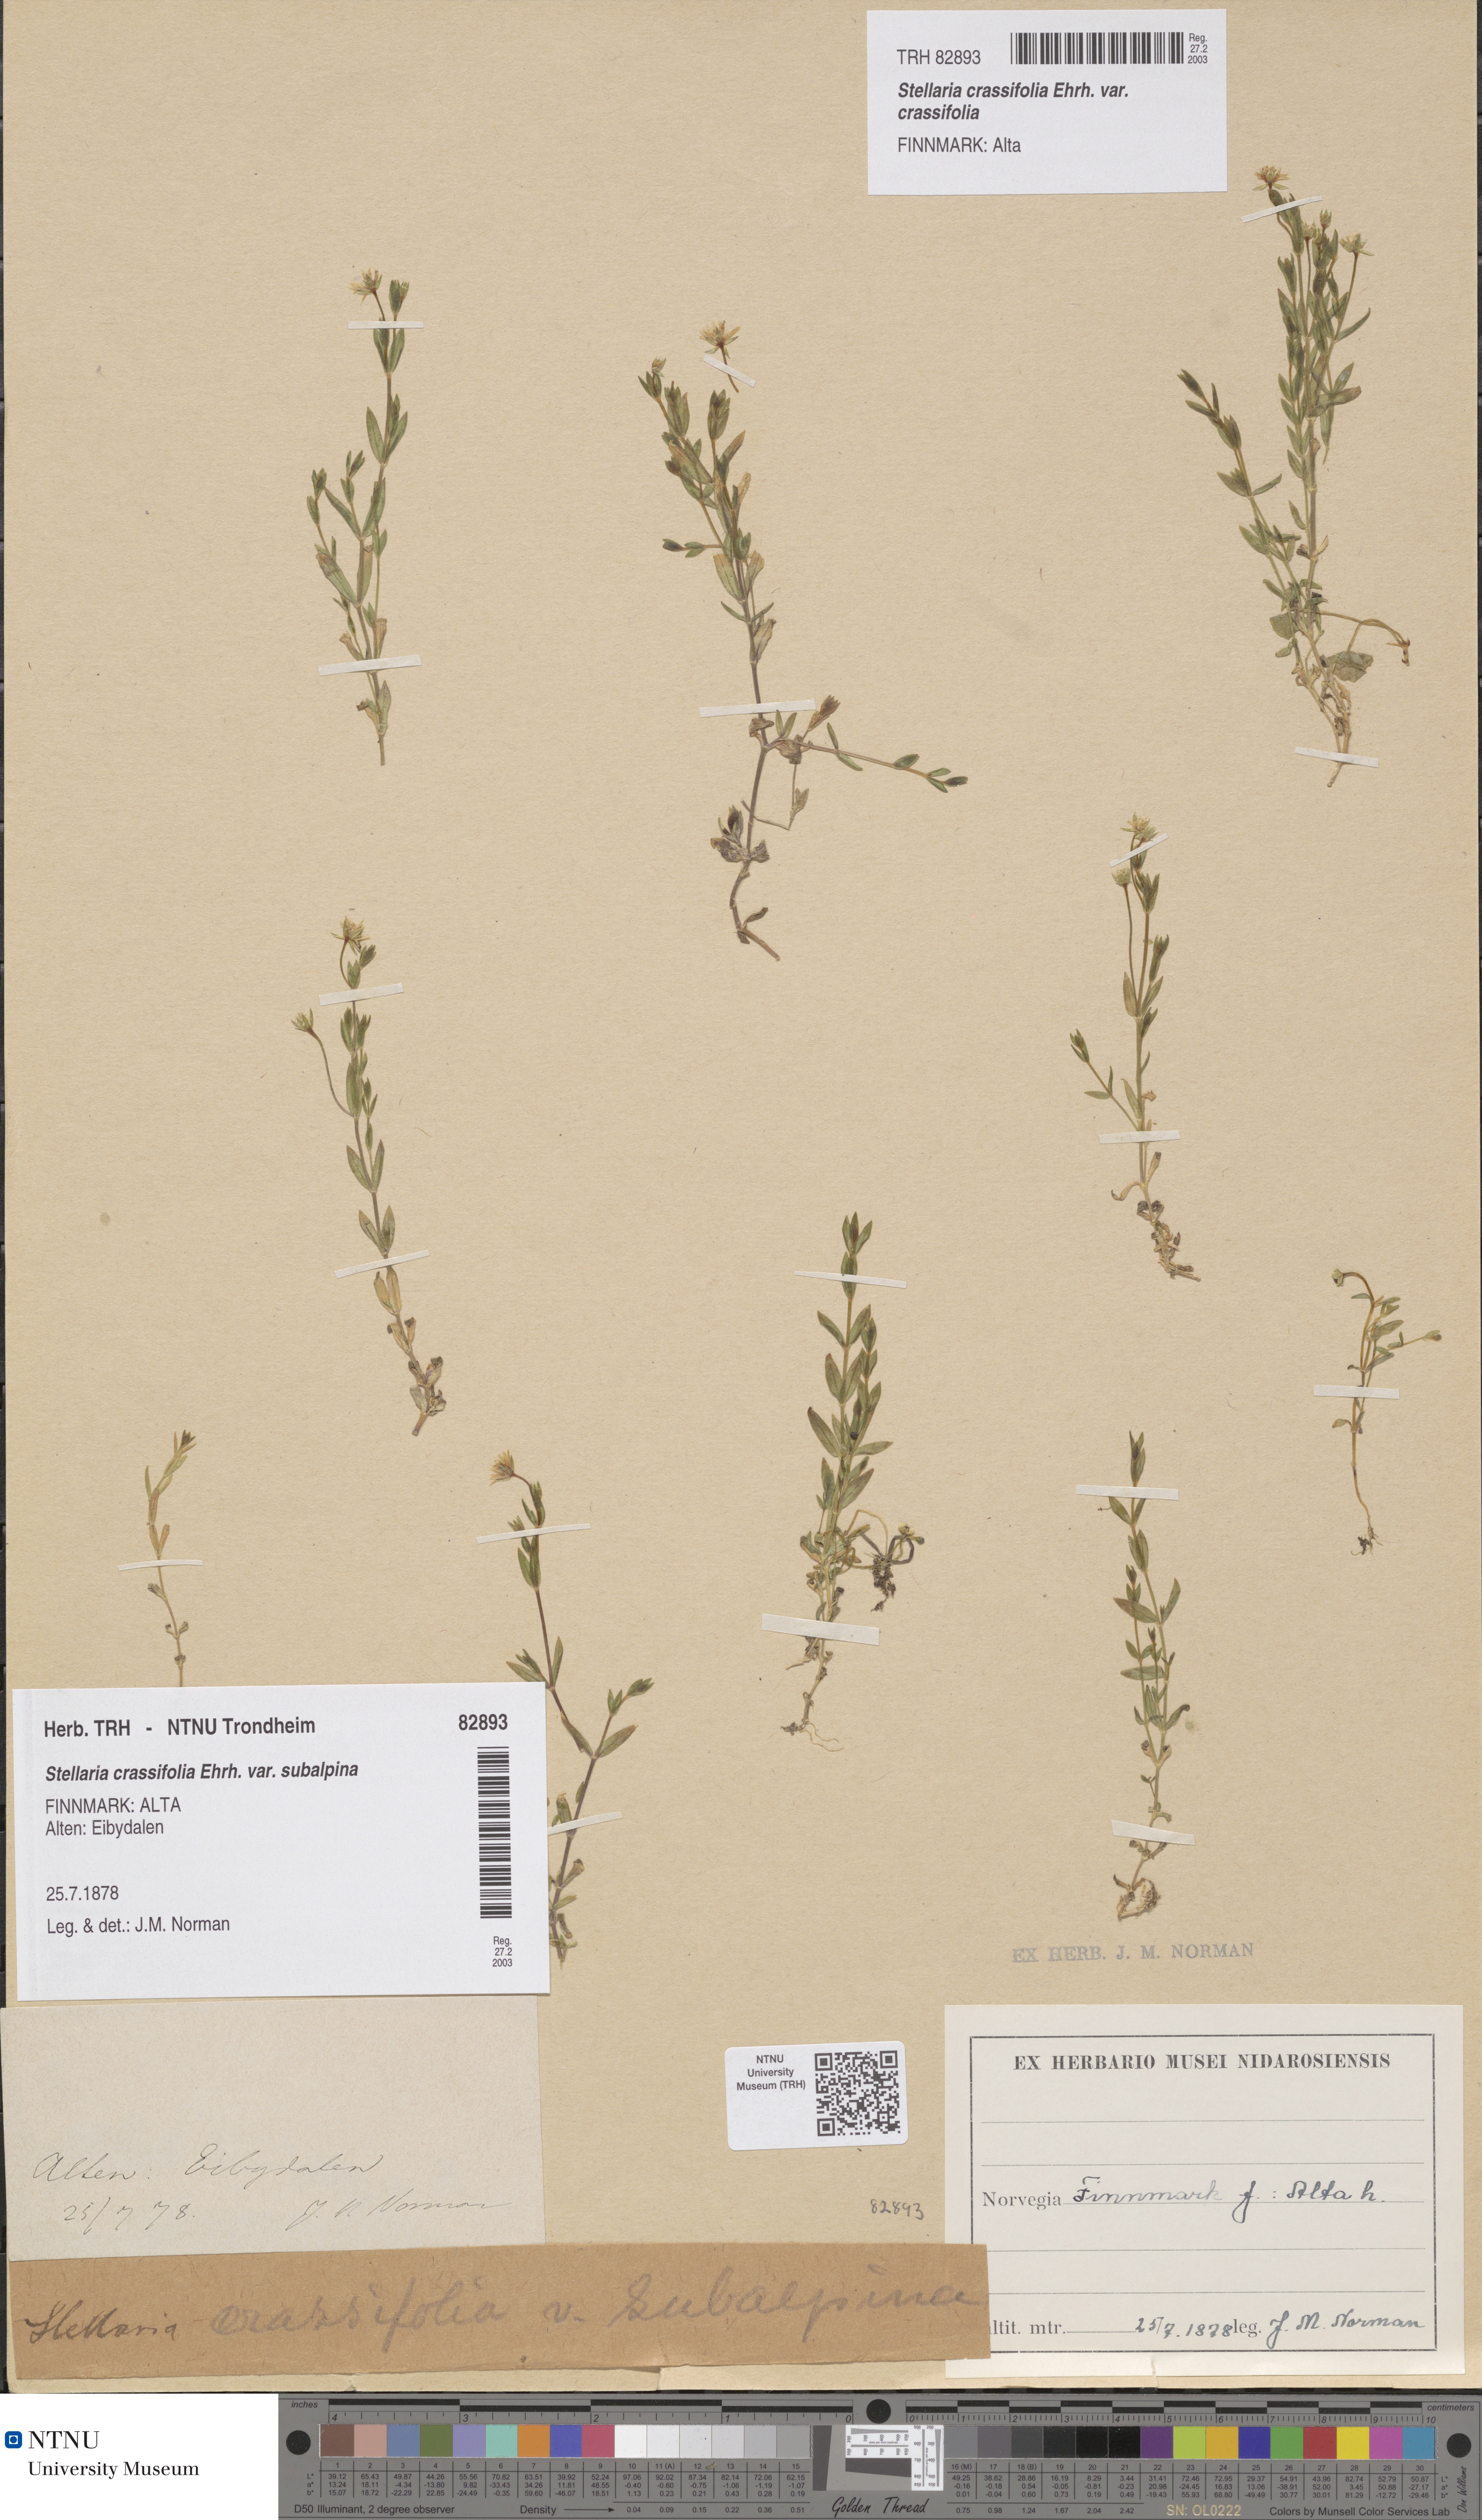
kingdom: Plantae
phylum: Tracheophyta
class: Magnoliopsida
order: Caryophyllales
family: Caryophyllaceae
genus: Stellaria
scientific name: Stellaria crassifolia
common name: Fleshy starwort
